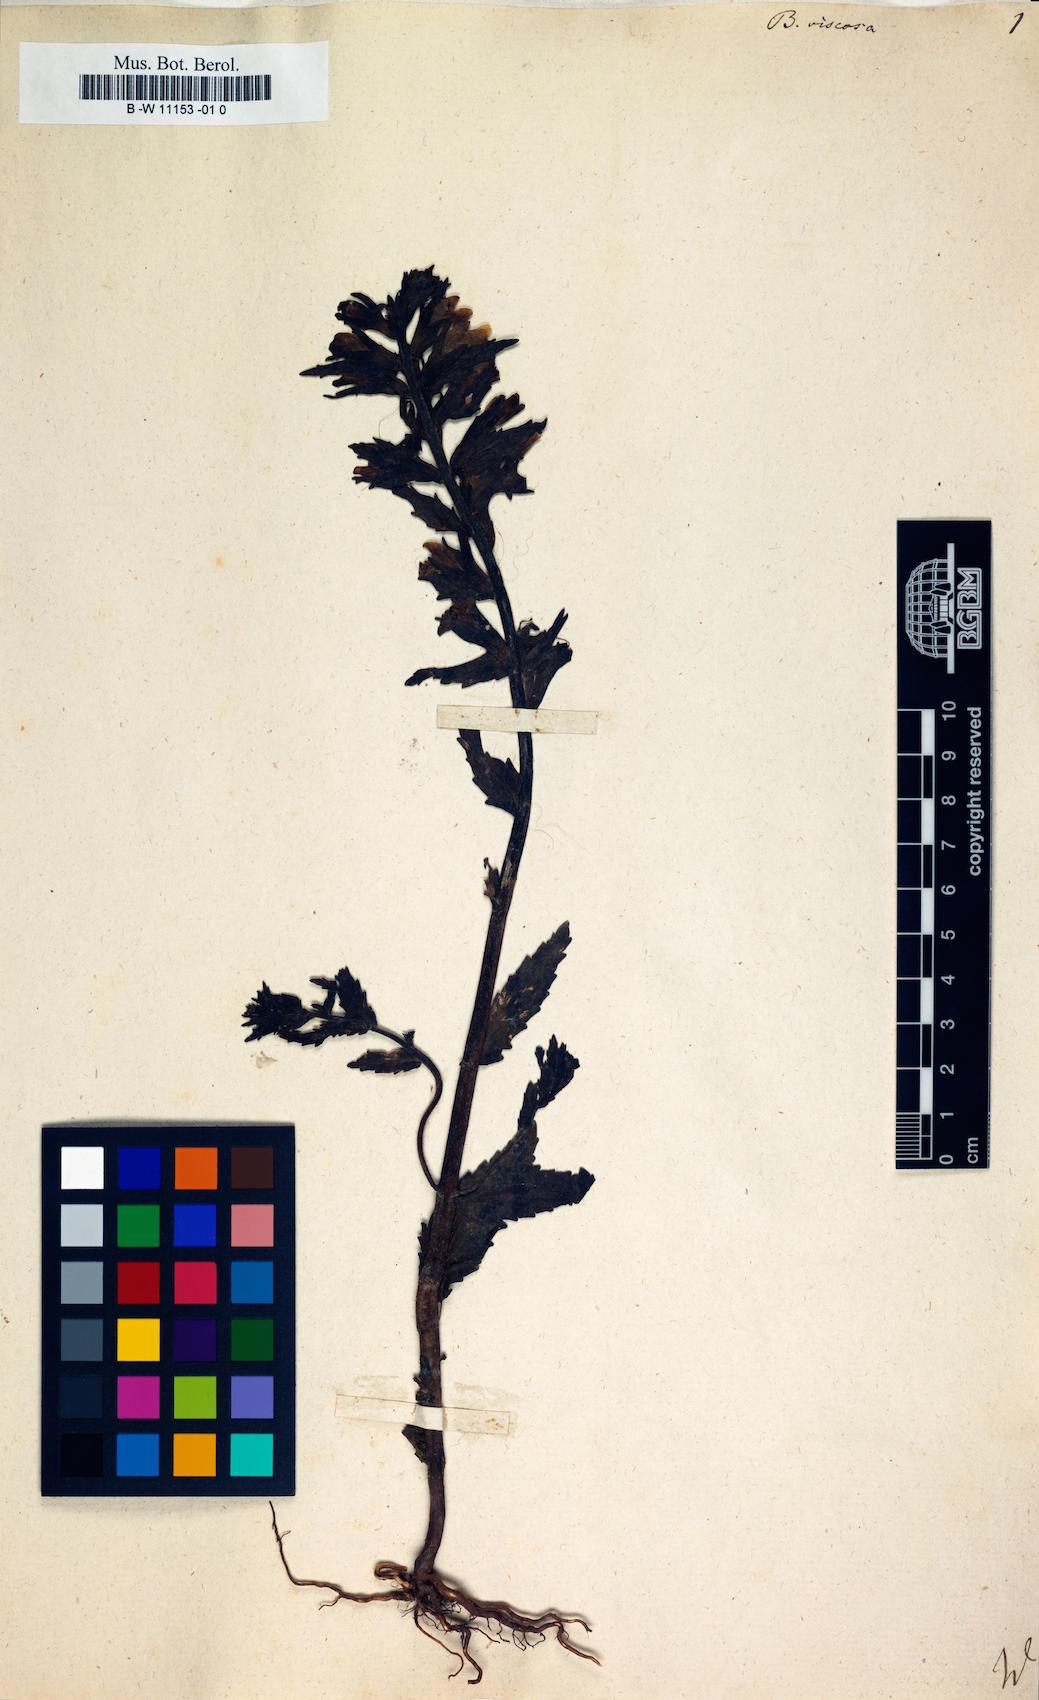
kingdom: Plantae
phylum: Tracheophyta
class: Magnoliopsida
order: Lamiales
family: Orobanchaceae
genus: Bellardia
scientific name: Bellardia viscosa
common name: Sticky parentucellia
